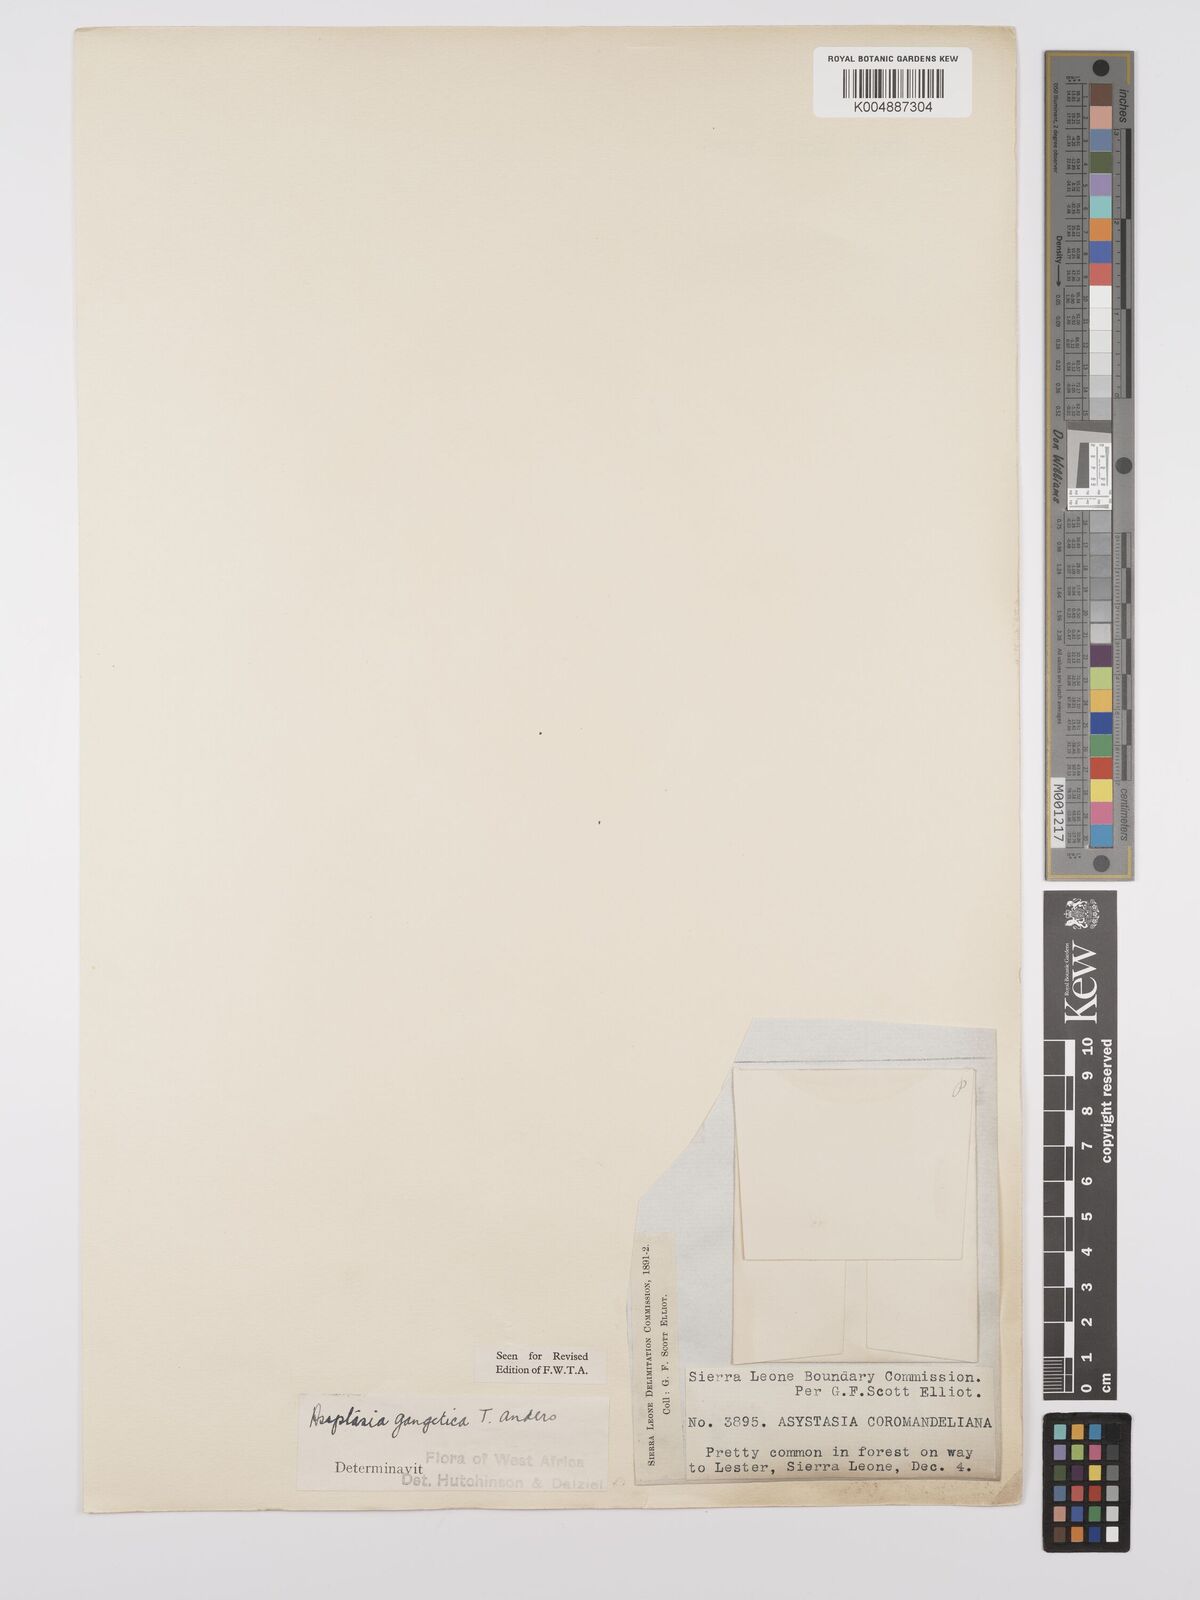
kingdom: Plantae
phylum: Tracheophyta
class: Magnoliopsida
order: Lamiales
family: Acanthaceae
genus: Asystasia
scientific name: Asystasia gangetica
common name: Chinese violet
